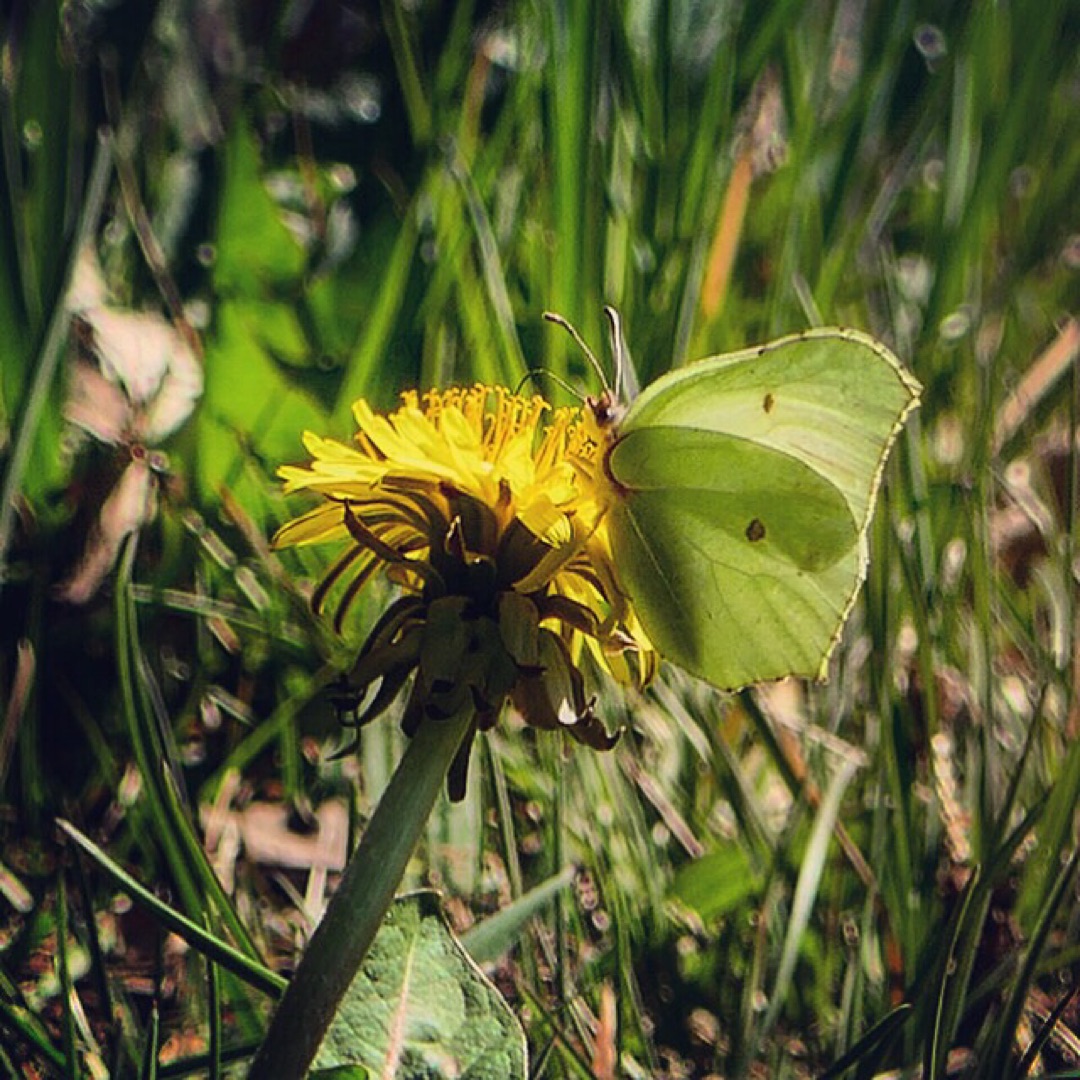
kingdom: Animalia
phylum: Arthropoda
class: Insecta
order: Lepidoptera
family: Pieridae
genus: Gonepteryx
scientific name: Gonepteryx rhamni
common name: Citronsommerfugl
